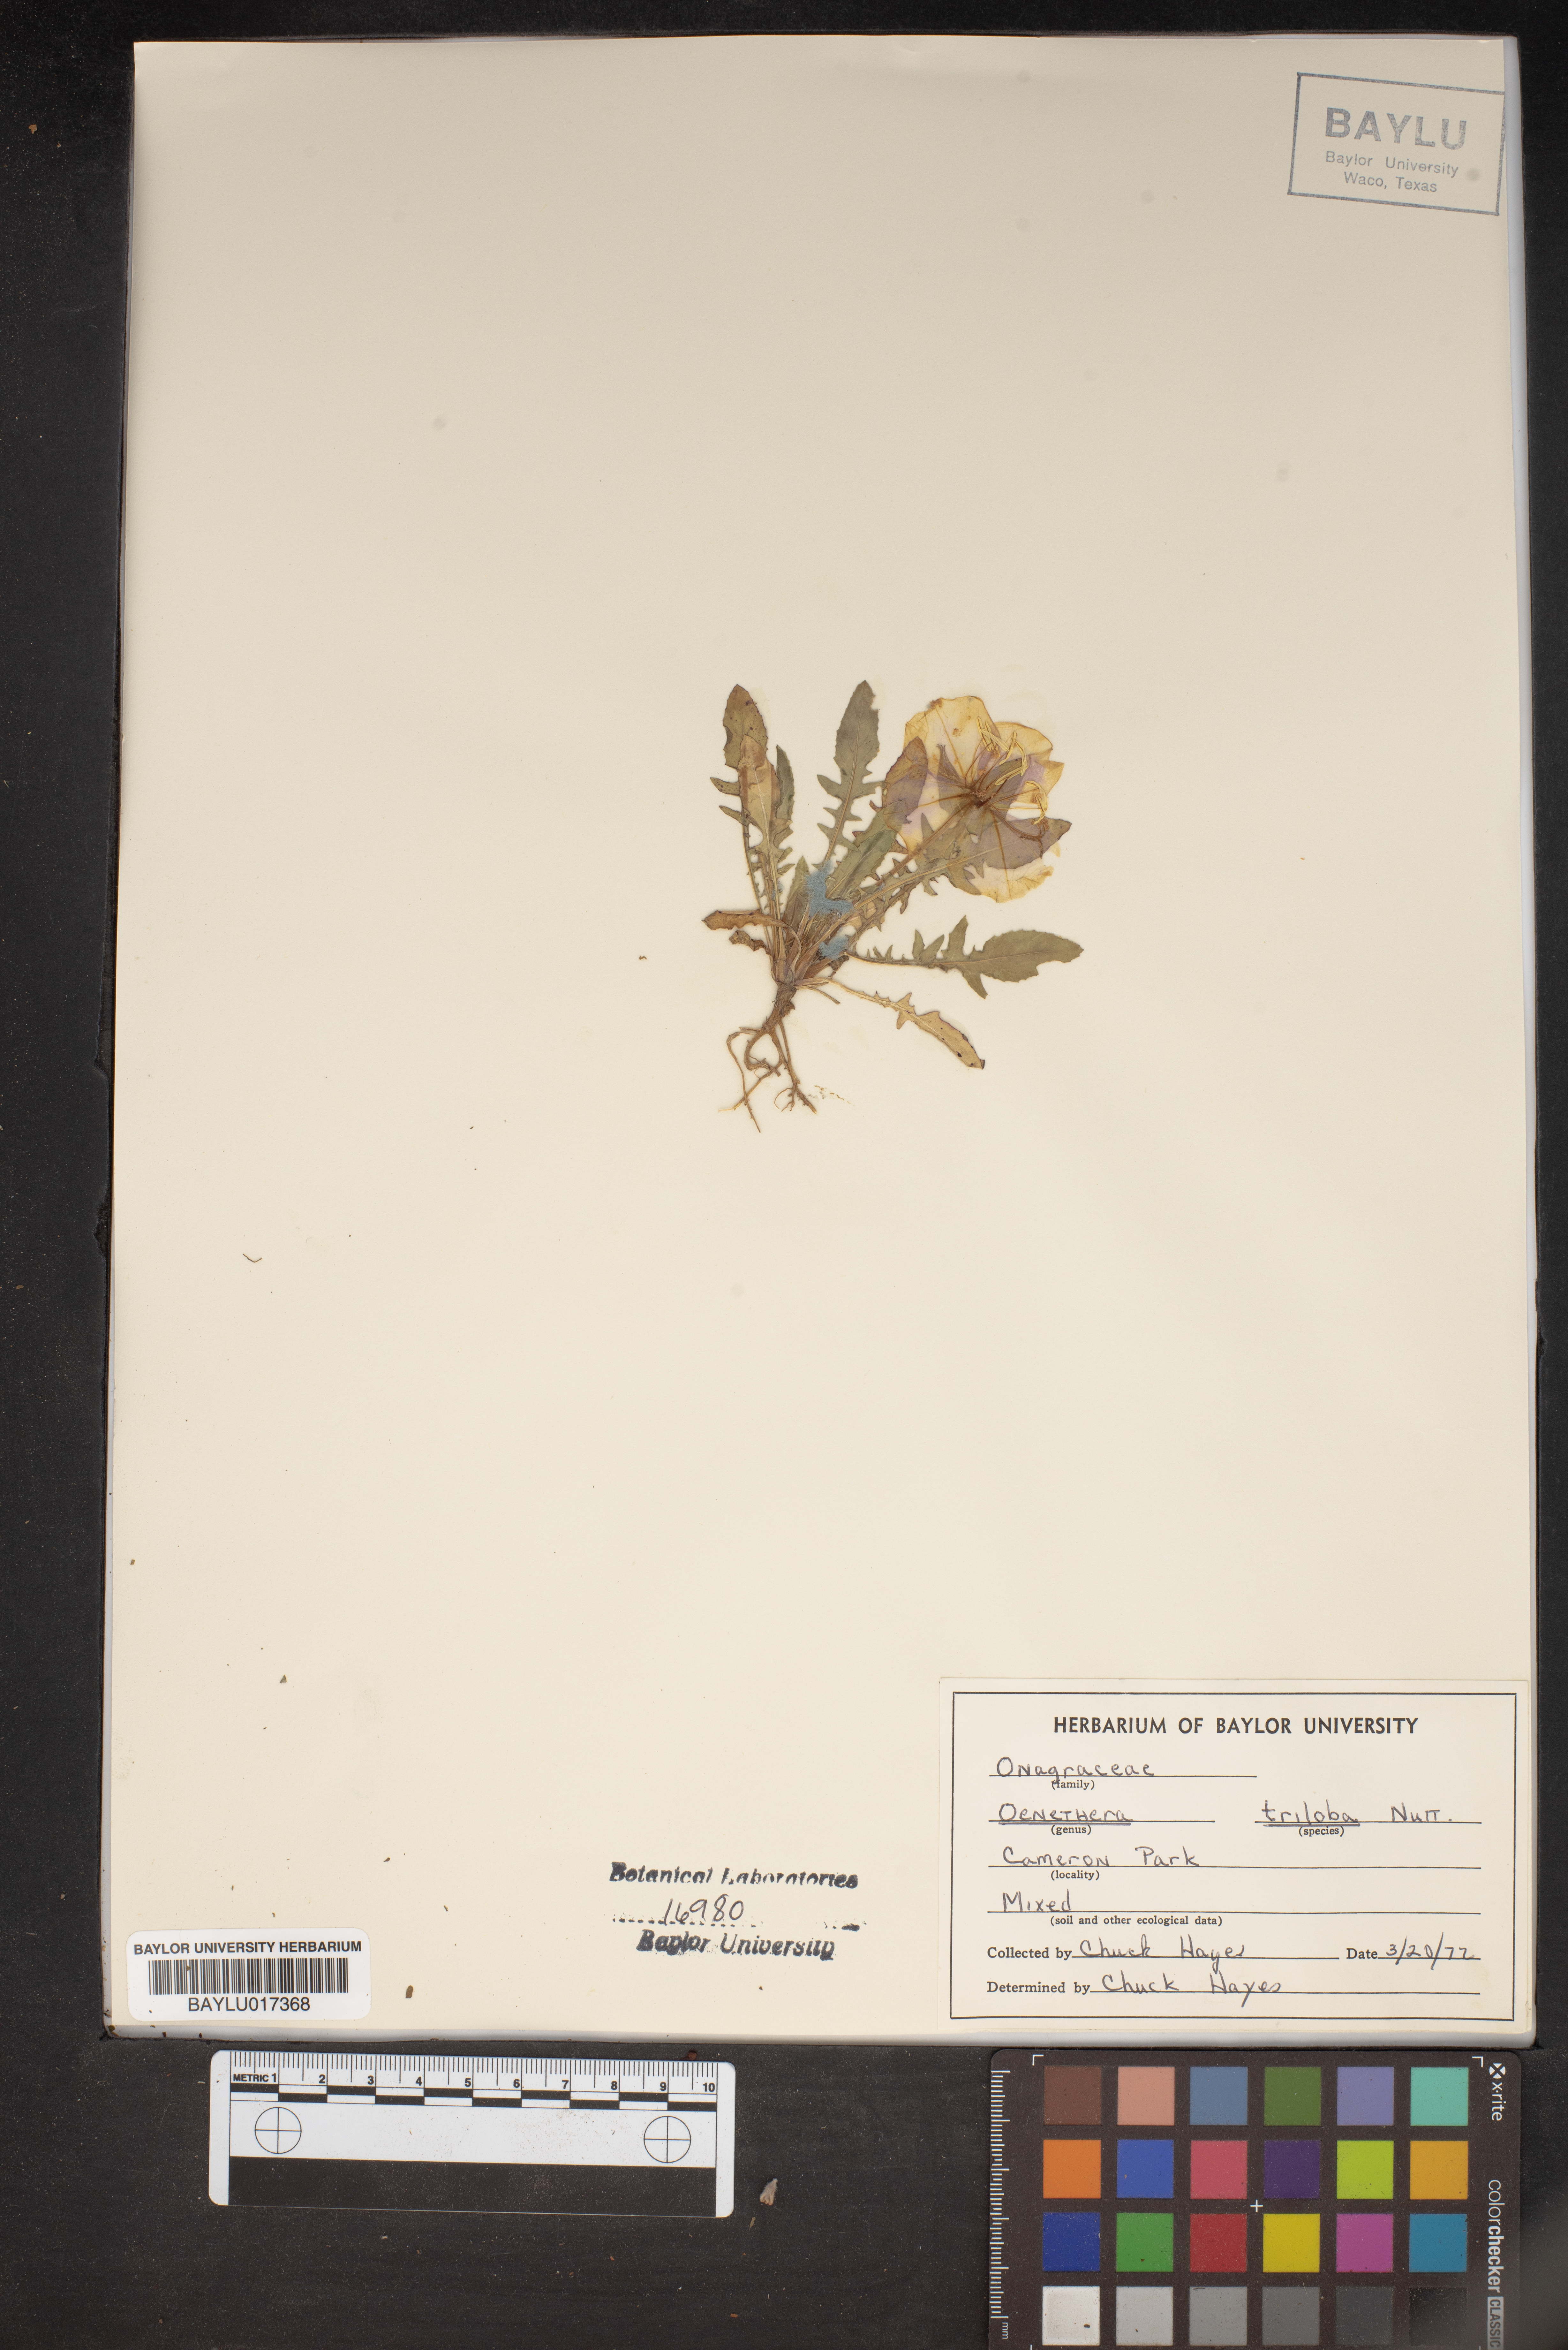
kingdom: Plantae
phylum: Tracheophyta
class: Magnoliopsida
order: Myrtales
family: Onagraceae
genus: Oenothera
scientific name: Oenothera triloba
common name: Sessile evening-primrose
